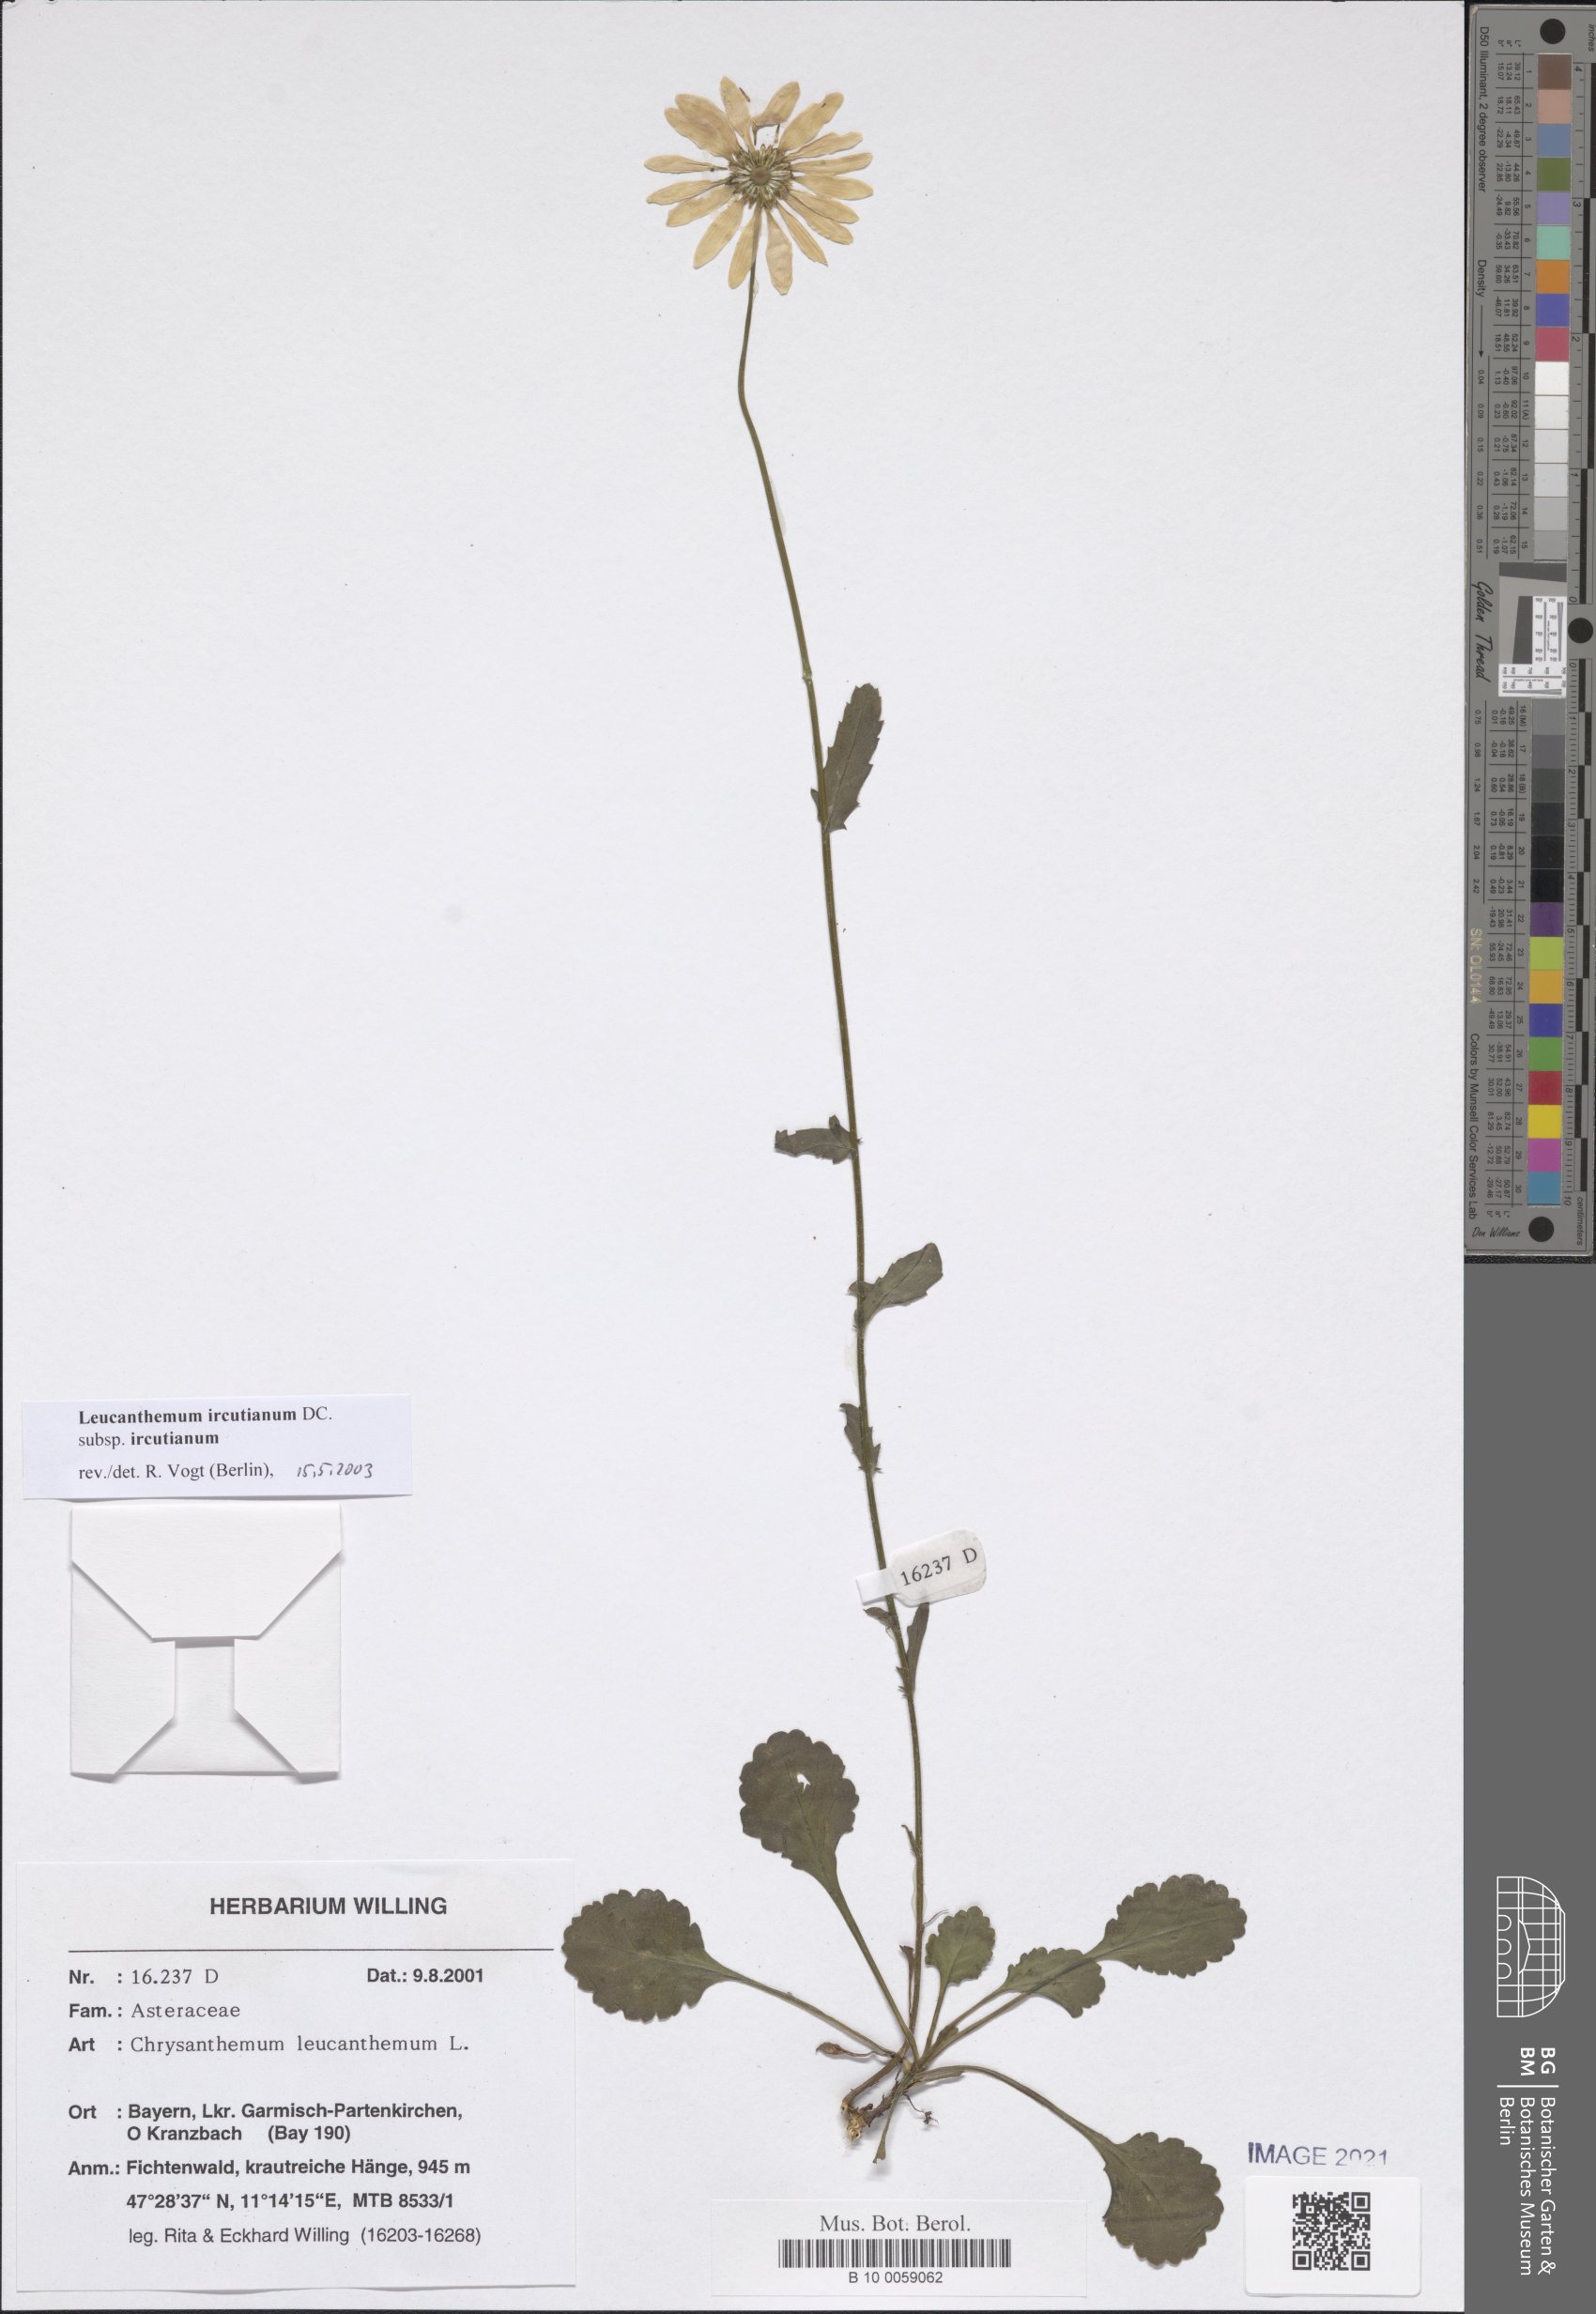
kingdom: Plantae
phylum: Tracheophyta
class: Magnoliopsida
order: Asterales
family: Asteraceae
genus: Leucanthemum
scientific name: Leucanthemum ircutianum
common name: Daisy
